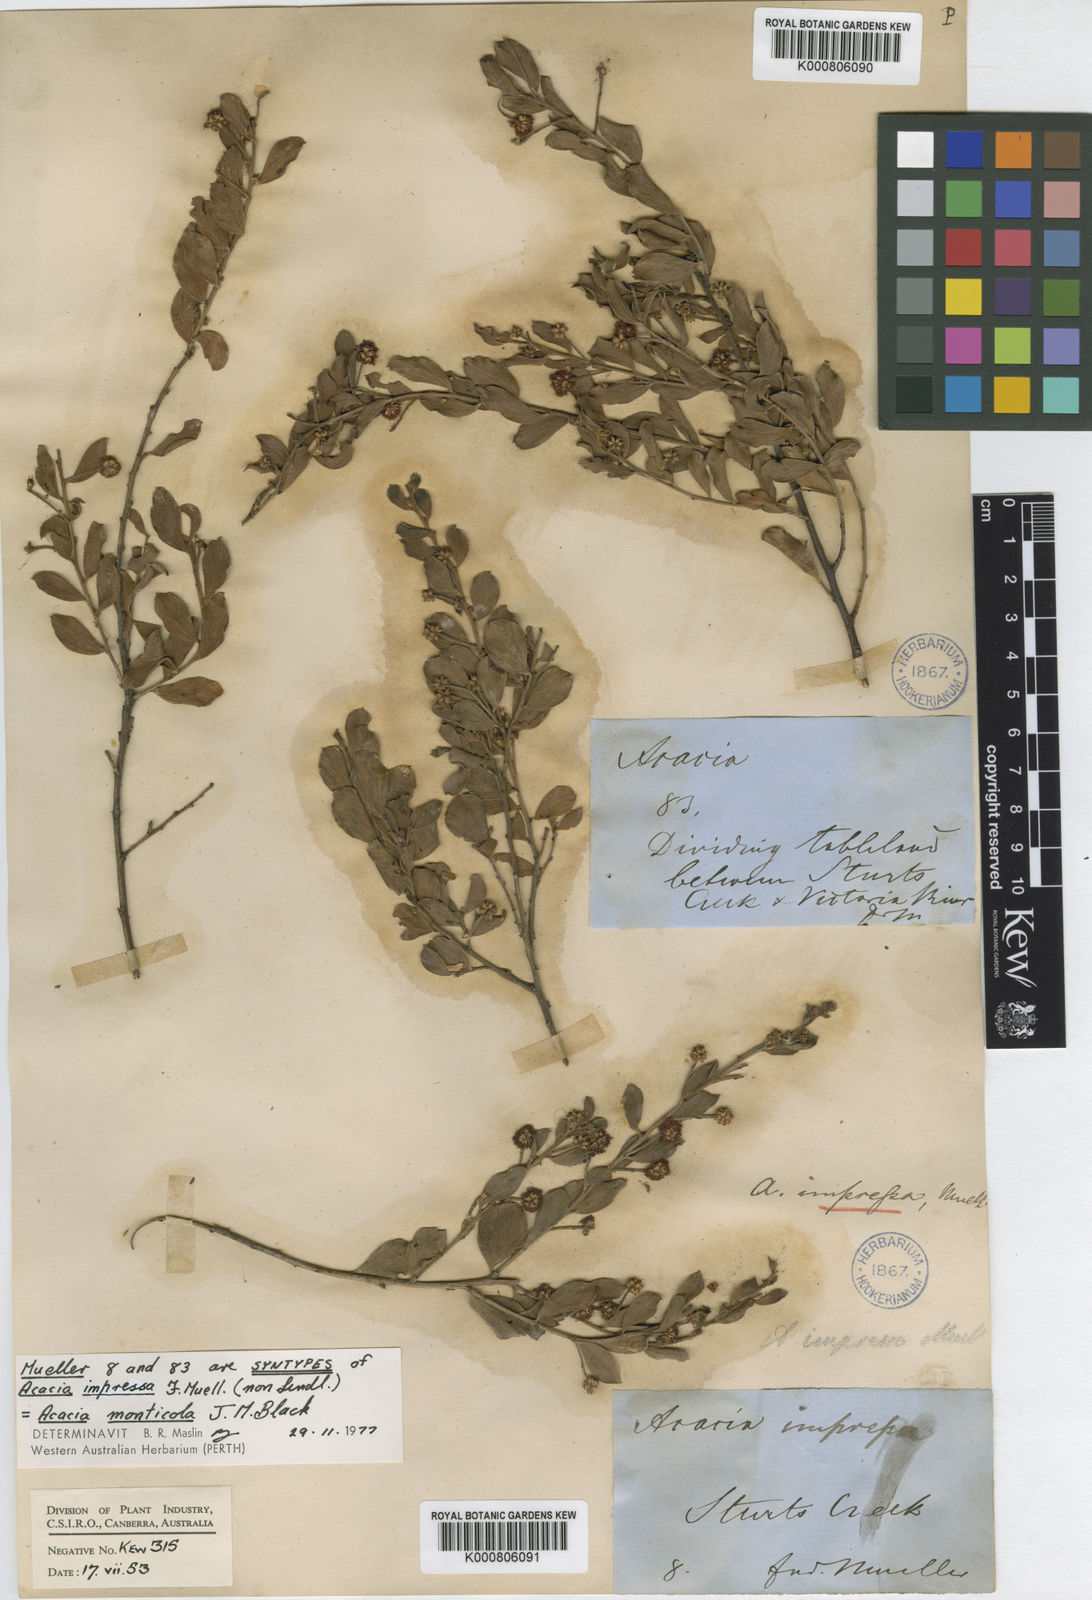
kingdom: Plantae
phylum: Tracheophyta
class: Magnoliopsida
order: Fabales
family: Fabaceae
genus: Acacia
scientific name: Acacia monticola
